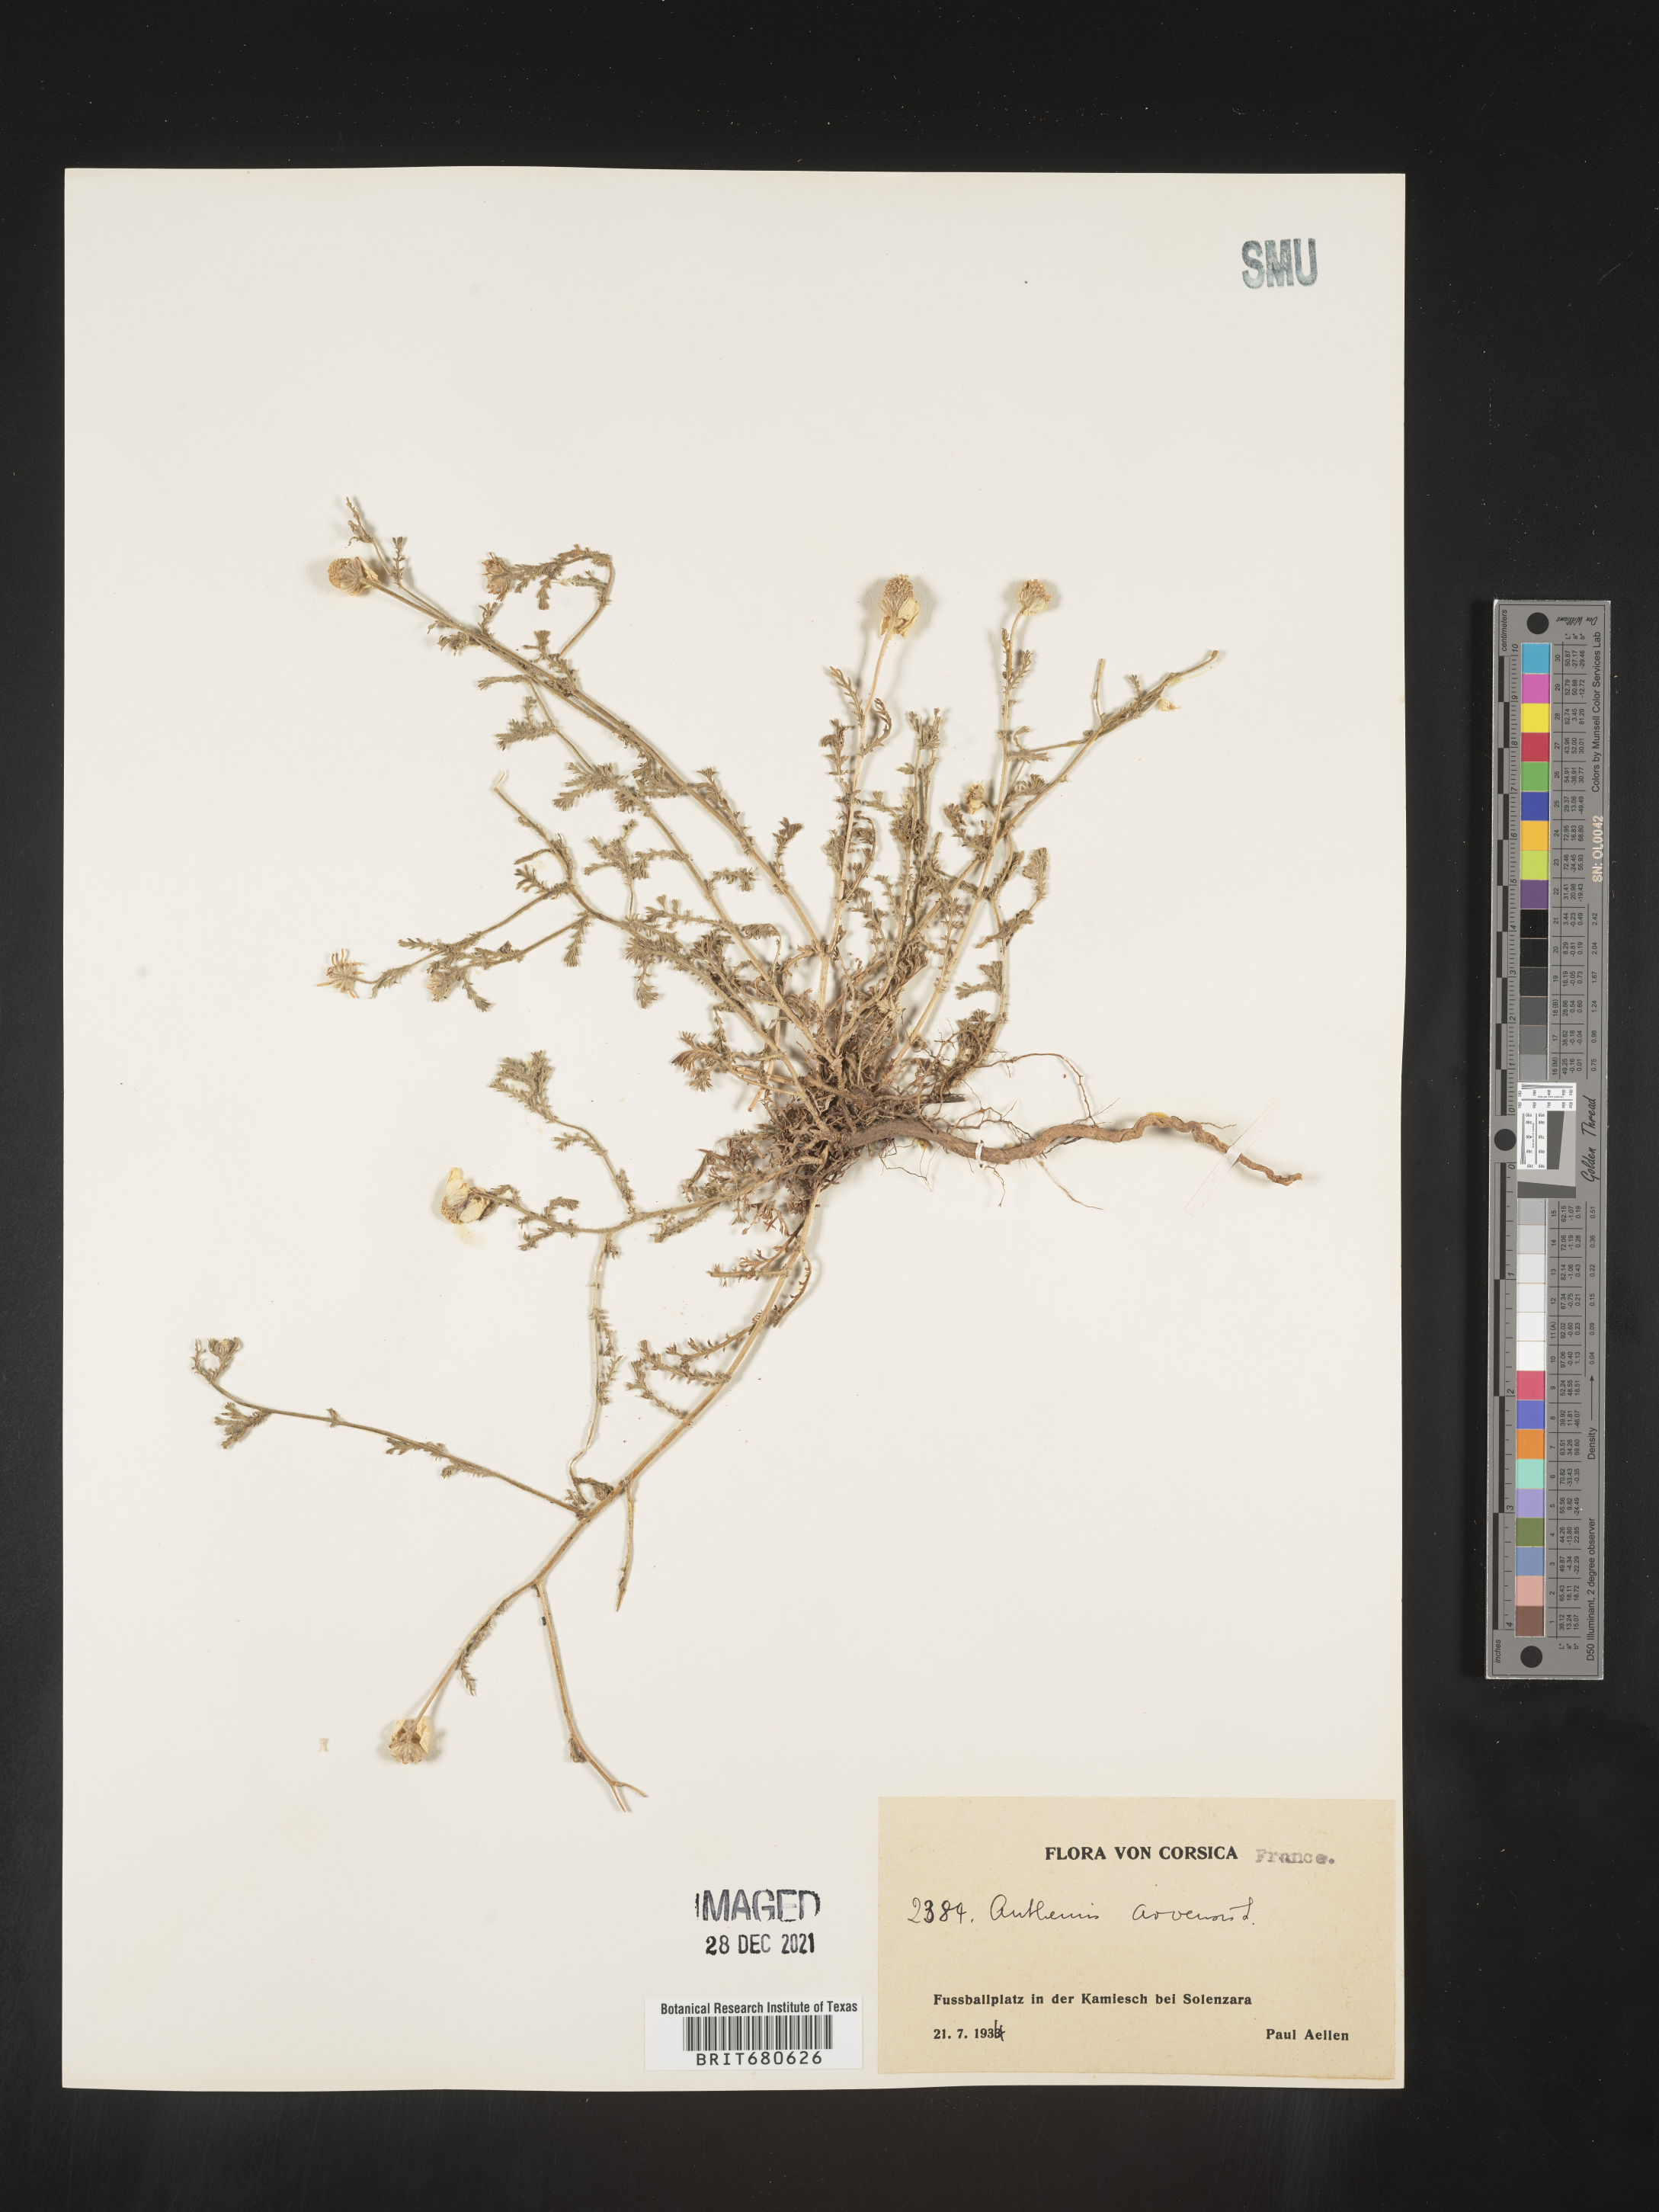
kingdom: Plantae
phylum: Tracheophyta
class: Magnoliopsida
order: Asterales
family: Asteraceae
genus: Anthemis
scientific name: Anthemis
